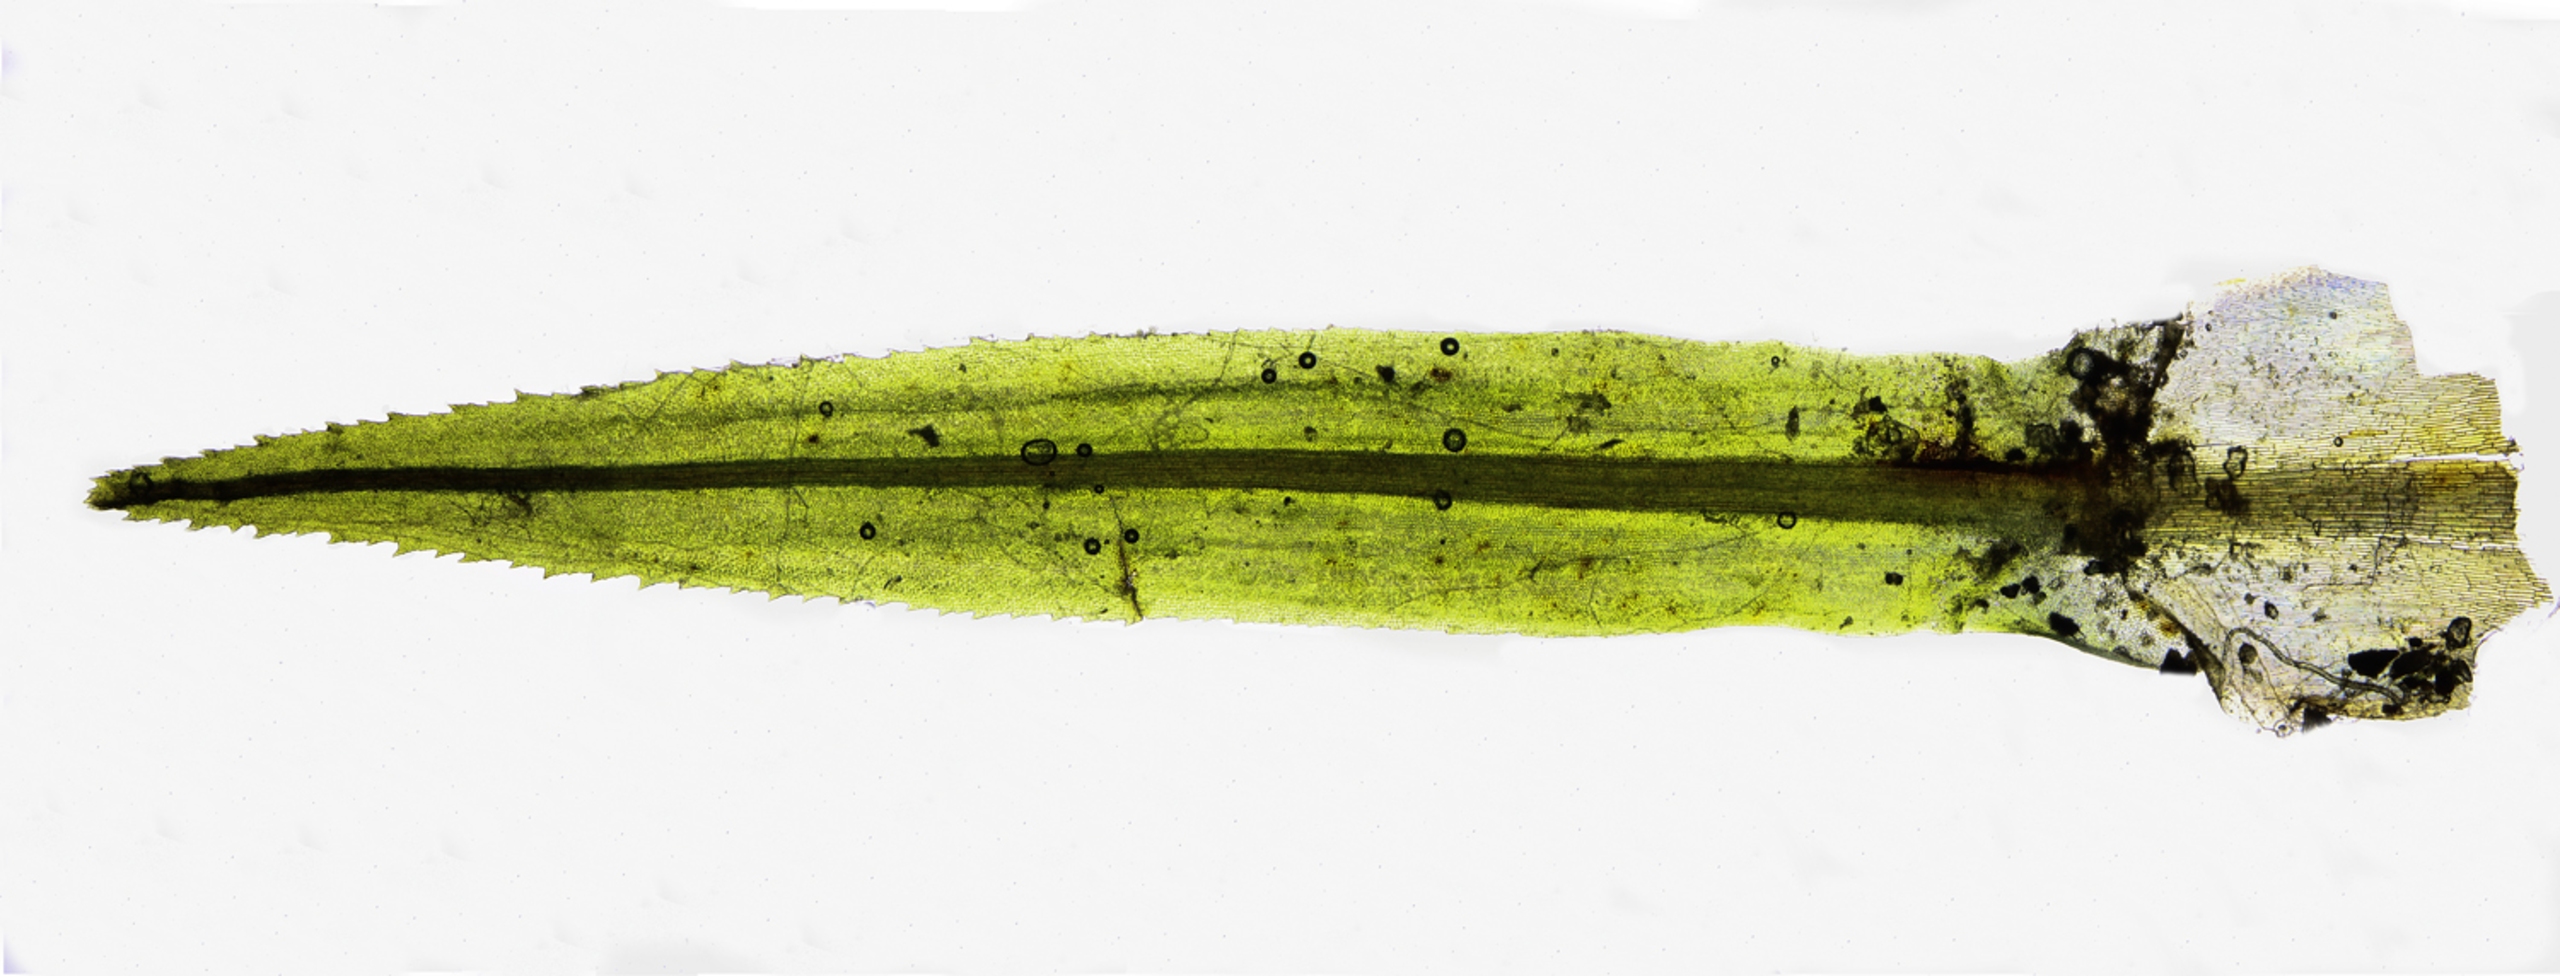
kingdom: Plantae
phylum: Bryophyta
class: Bryopsida
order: Timmiales
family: Timmiaceae
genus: Timmia
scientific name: Timmia austriaca
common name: Skov-timmia
